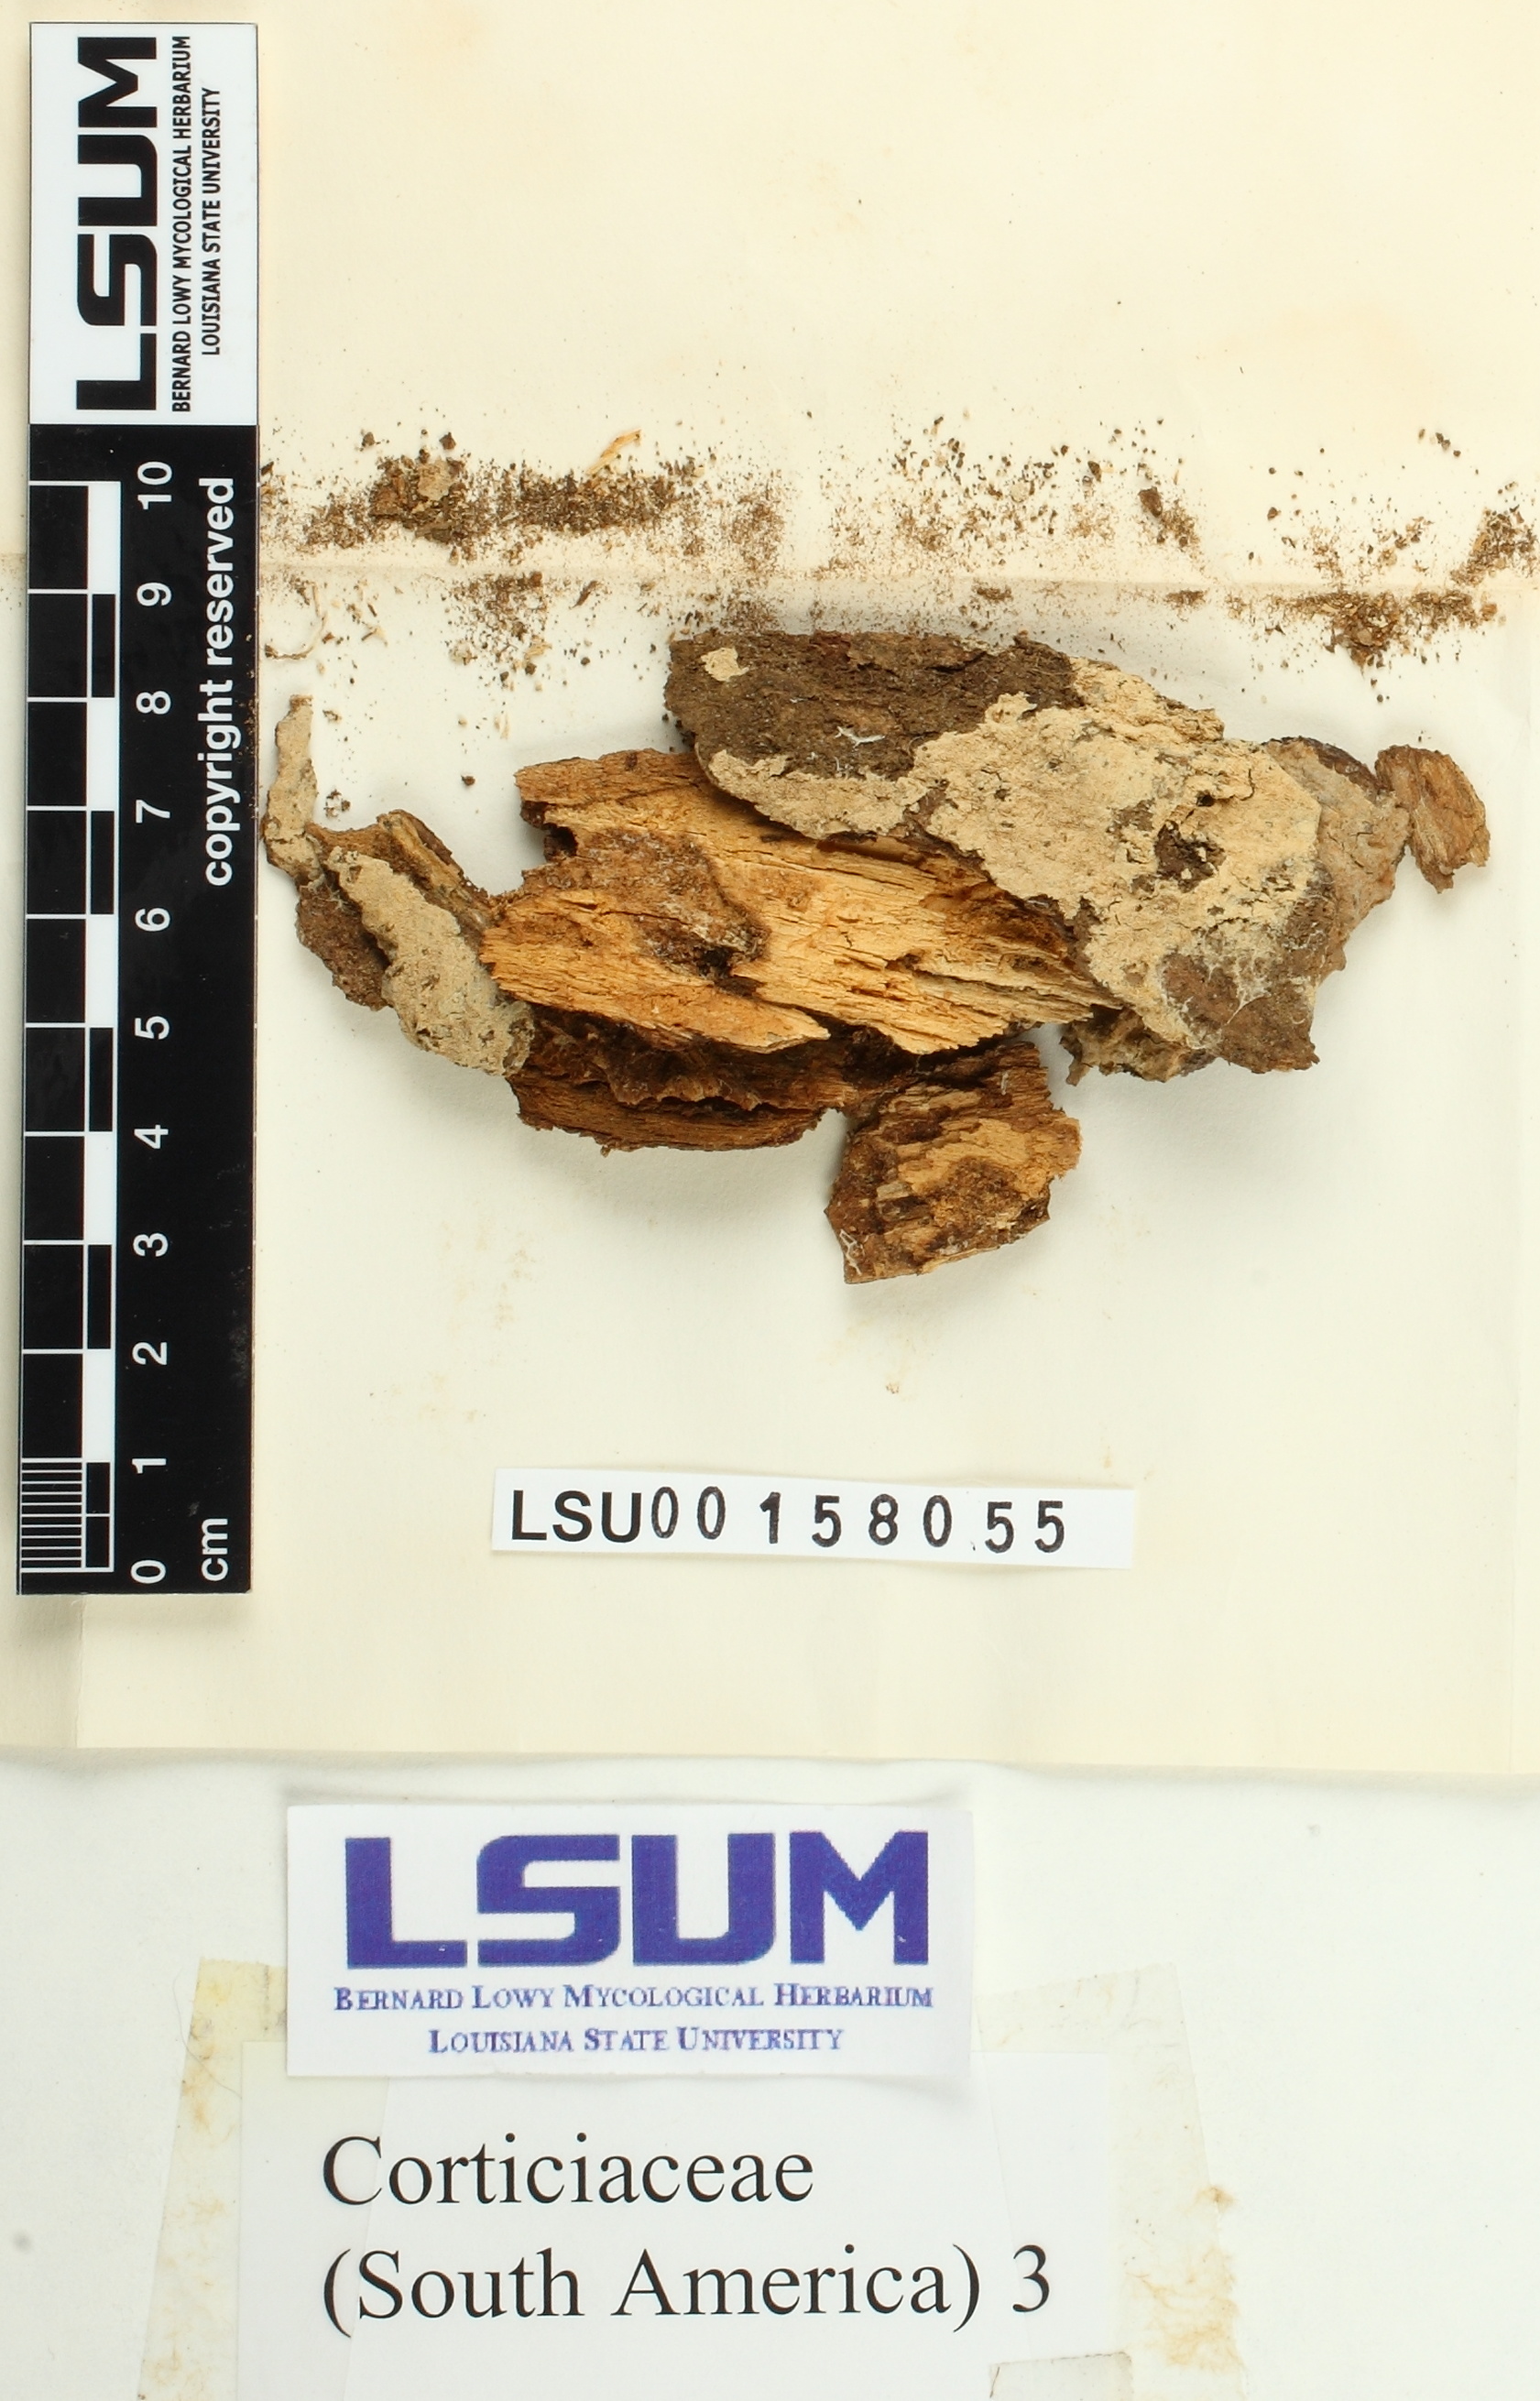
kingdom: Fungi
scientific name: Fungi
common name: Fungi
